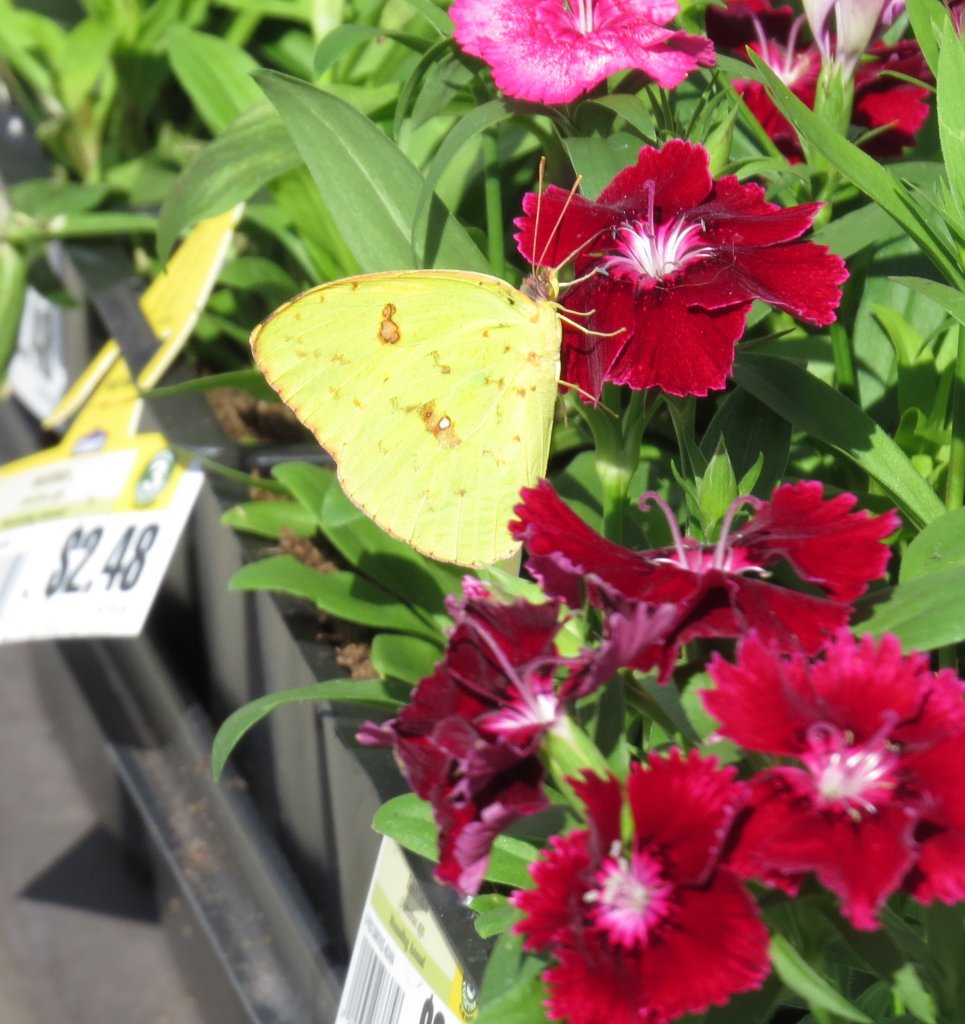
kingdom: Animalia
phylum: Arthropoda
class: Insecta
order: Lepidoptera
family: Pieridae
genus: Phoebis
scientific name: Phoebis sennae
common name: Cloudless Sulphur
